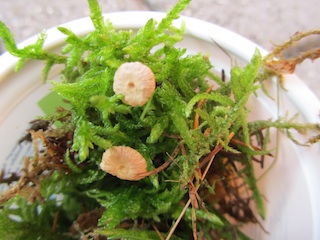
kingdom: Fungi
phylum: Basidiomycota
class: Agaricomycetes
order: Agaricales
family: Omphalotaceae
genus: Paragymnopus
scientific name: Paragymnopus perforans
